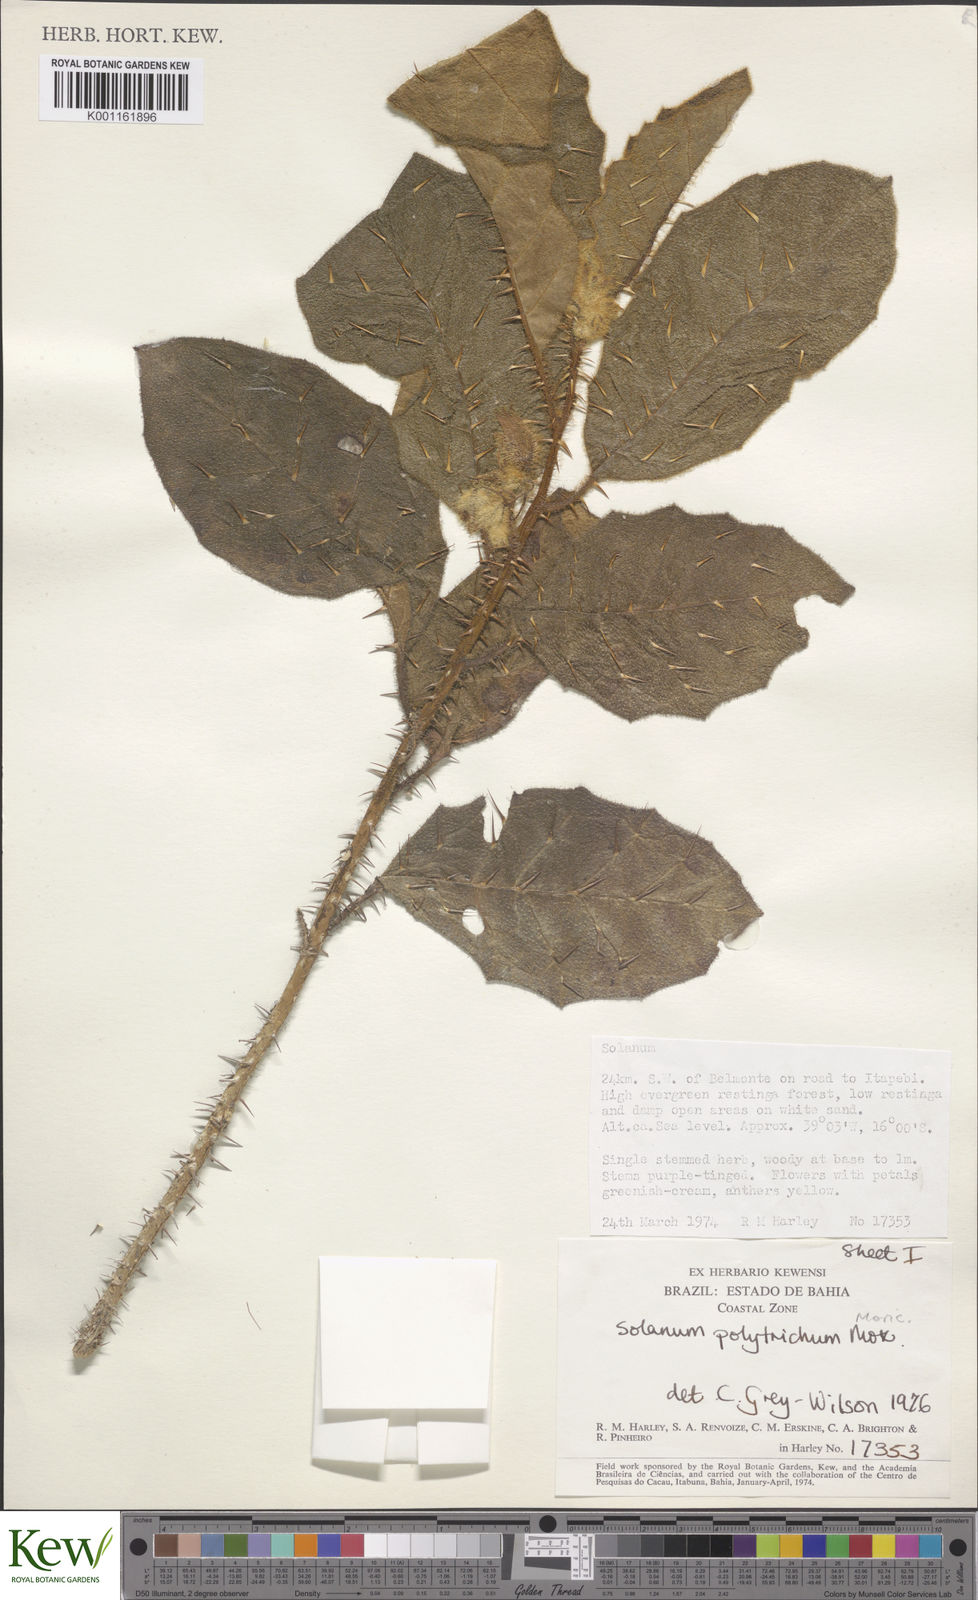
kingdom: Plantae
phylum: Tracheophyta
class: Magnoliopsida
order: Solanales
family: Solanaceae
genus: Solanum
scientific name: Solanum polytrichum
